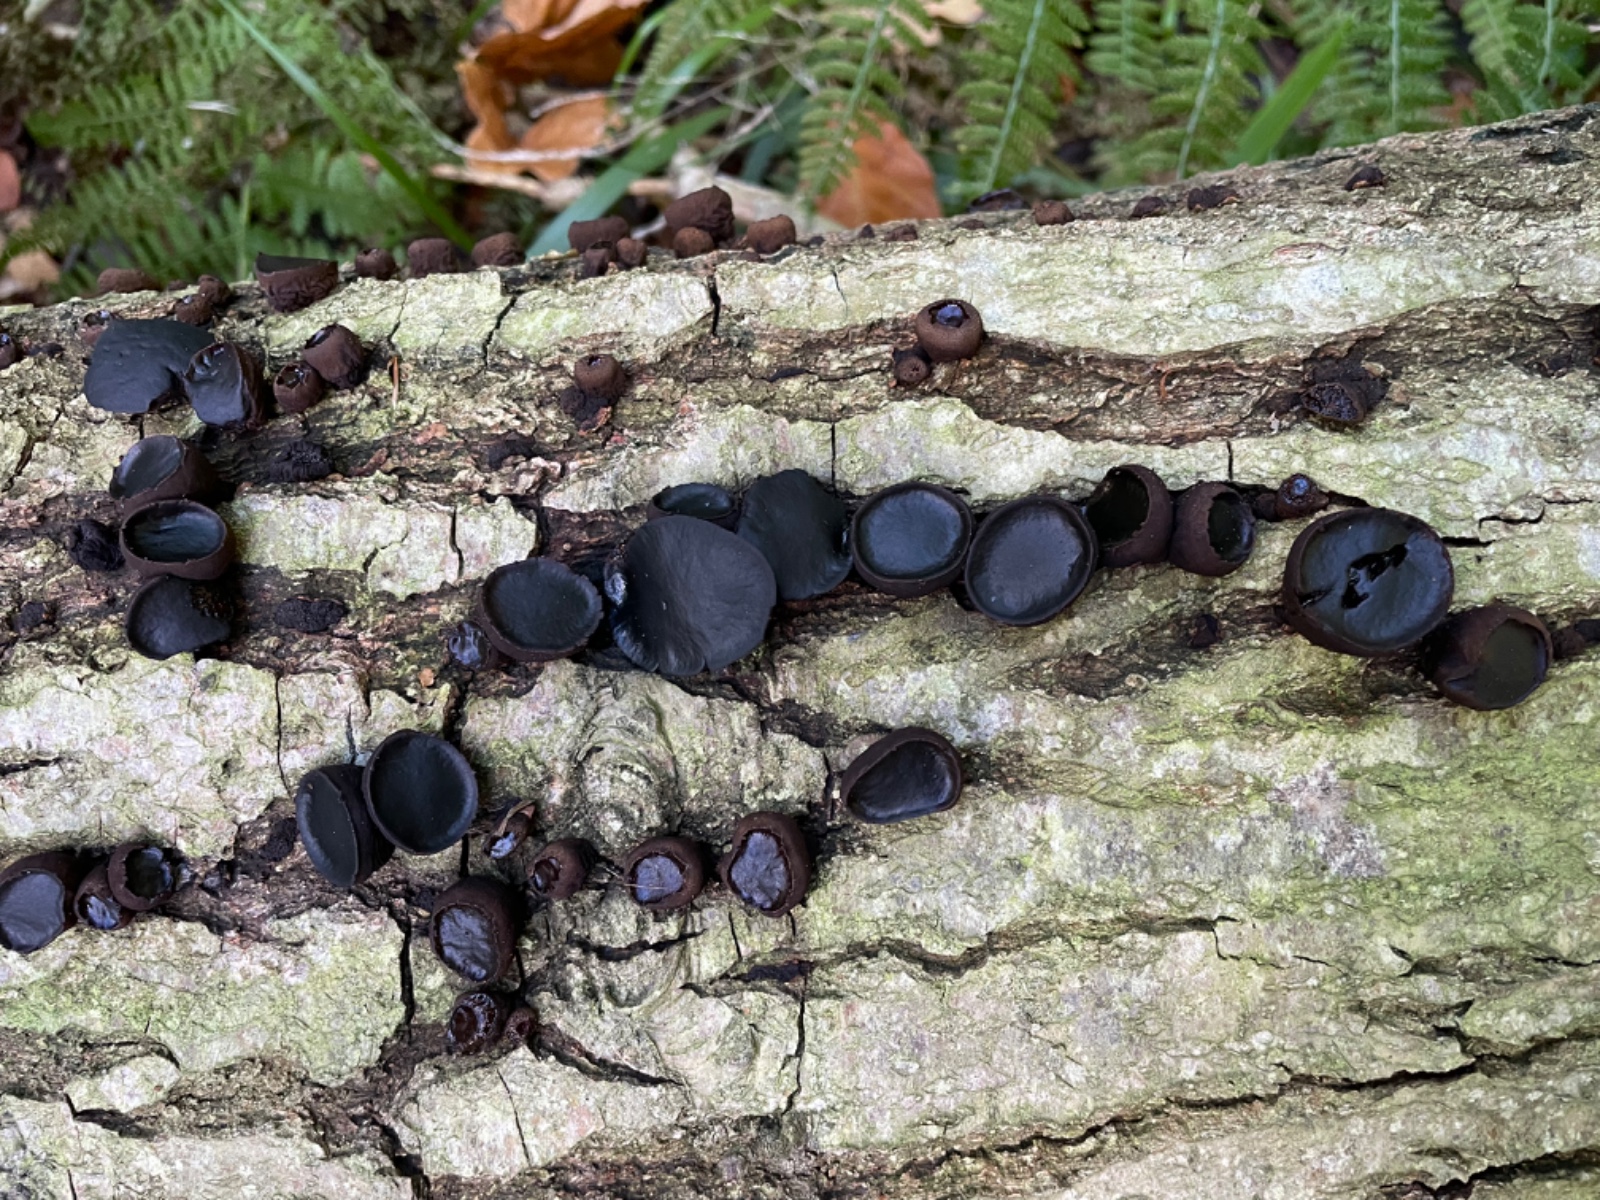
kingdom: Fungi
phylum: Ascomycota
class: Leotiomycetes
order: Phacidiales
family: Phacidiaceae
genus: Bulgaria
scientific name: Bulgaria inquinans
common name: afsmittende topsvamp
